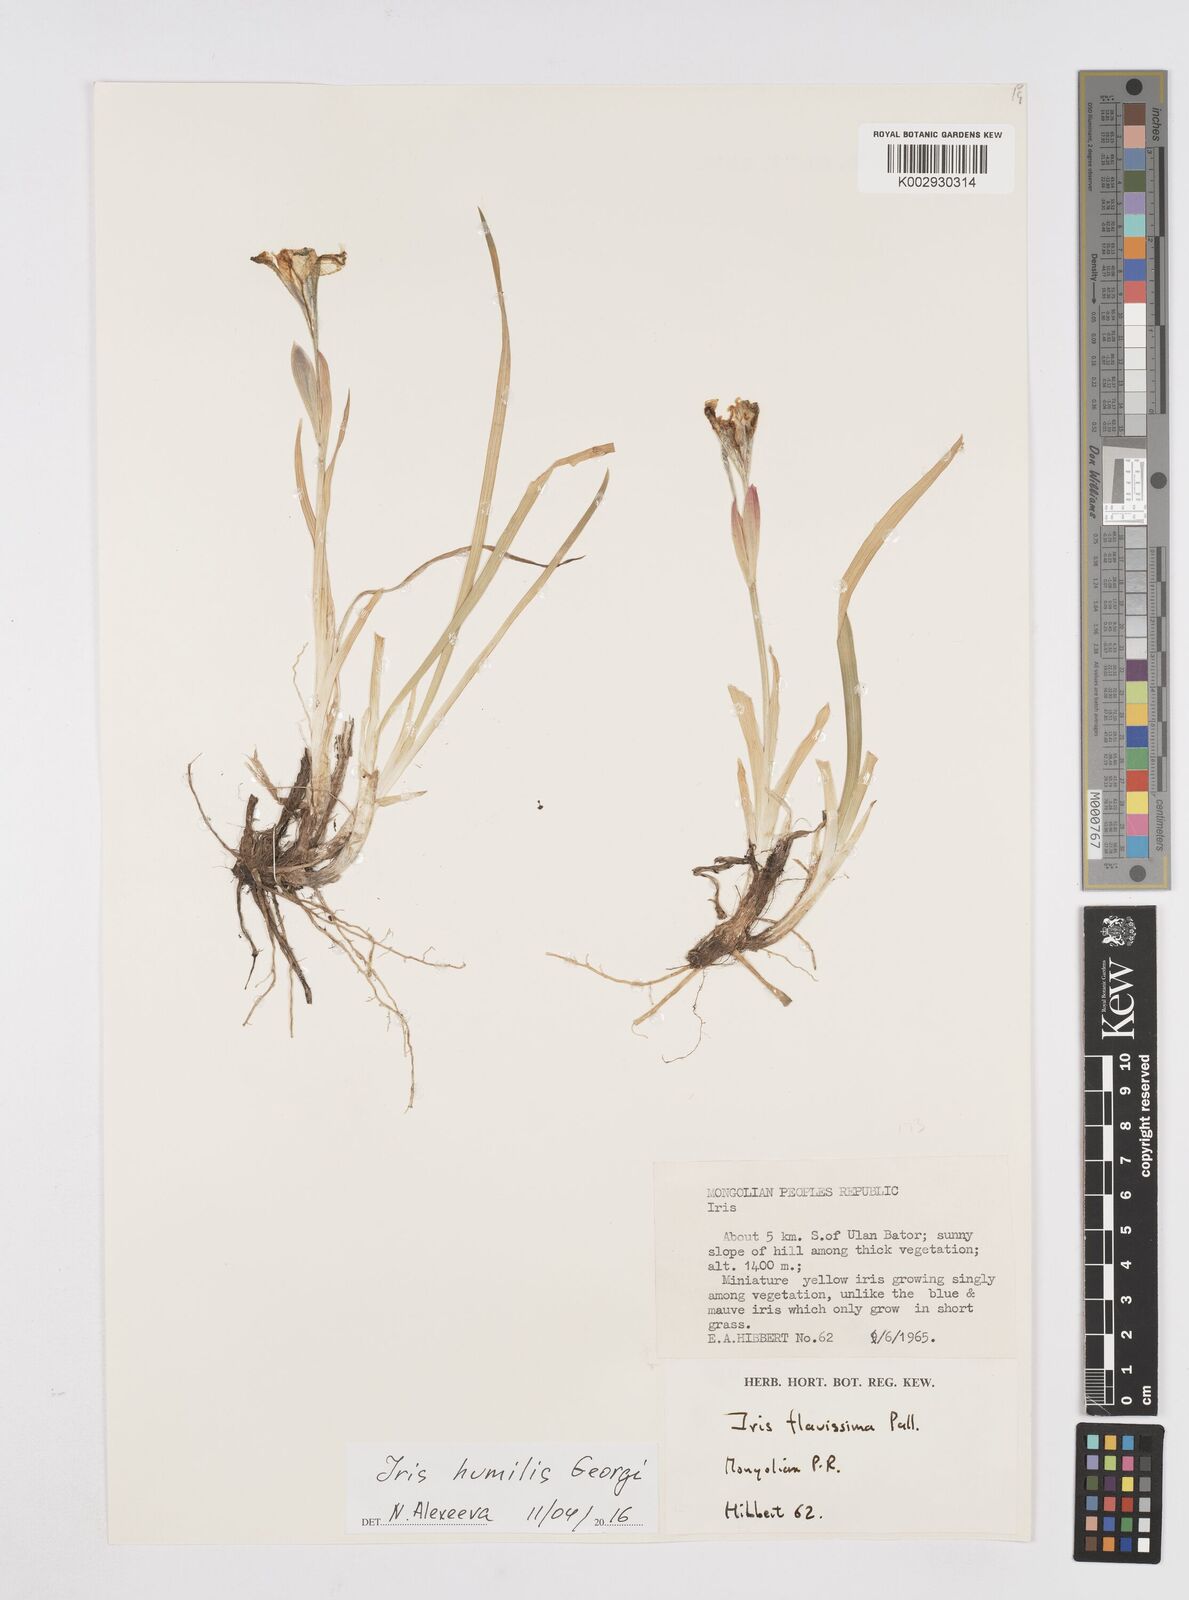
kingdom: Plantae
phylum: Tracheophyta
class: Liliopsida
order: Asparagales
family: Iridaceae
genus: Iris
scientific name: Iris humilis
